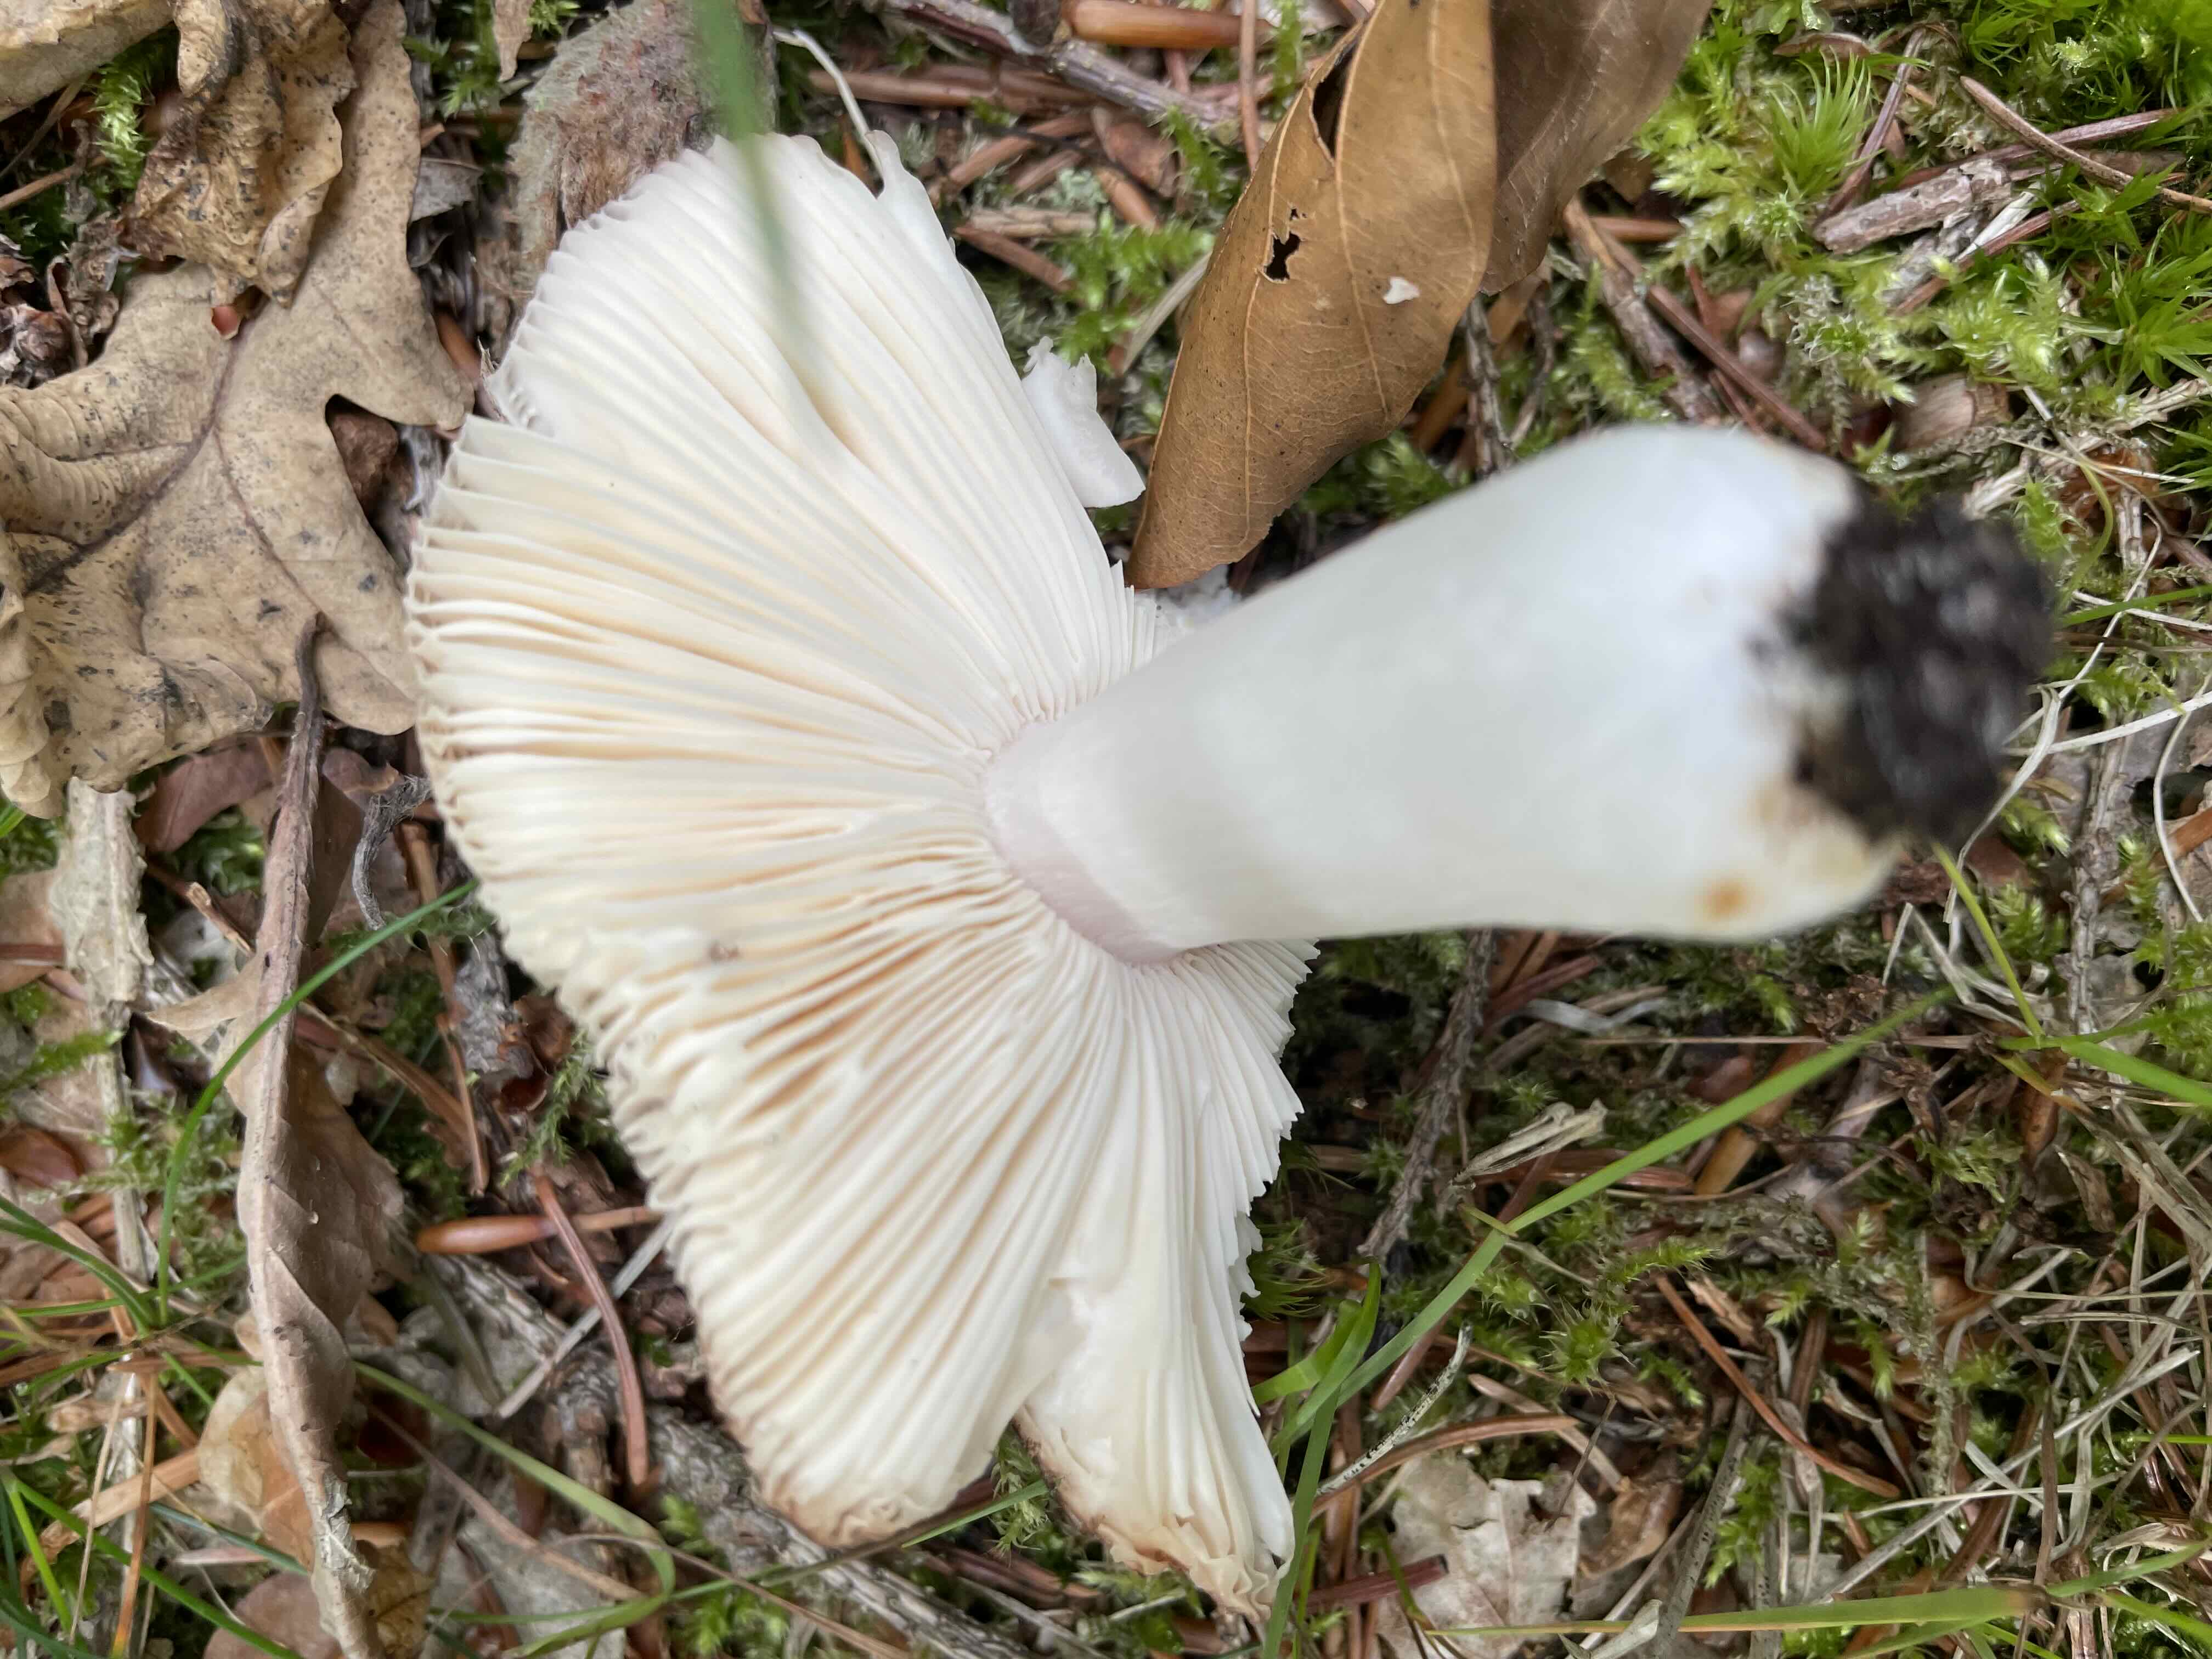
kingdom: Fungi
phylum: Basidiomycota
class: Agaricomycetes
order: Russulales
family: Russulaceae
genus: Russula
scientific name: Russula cyanoxantha
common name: broget skørhat
